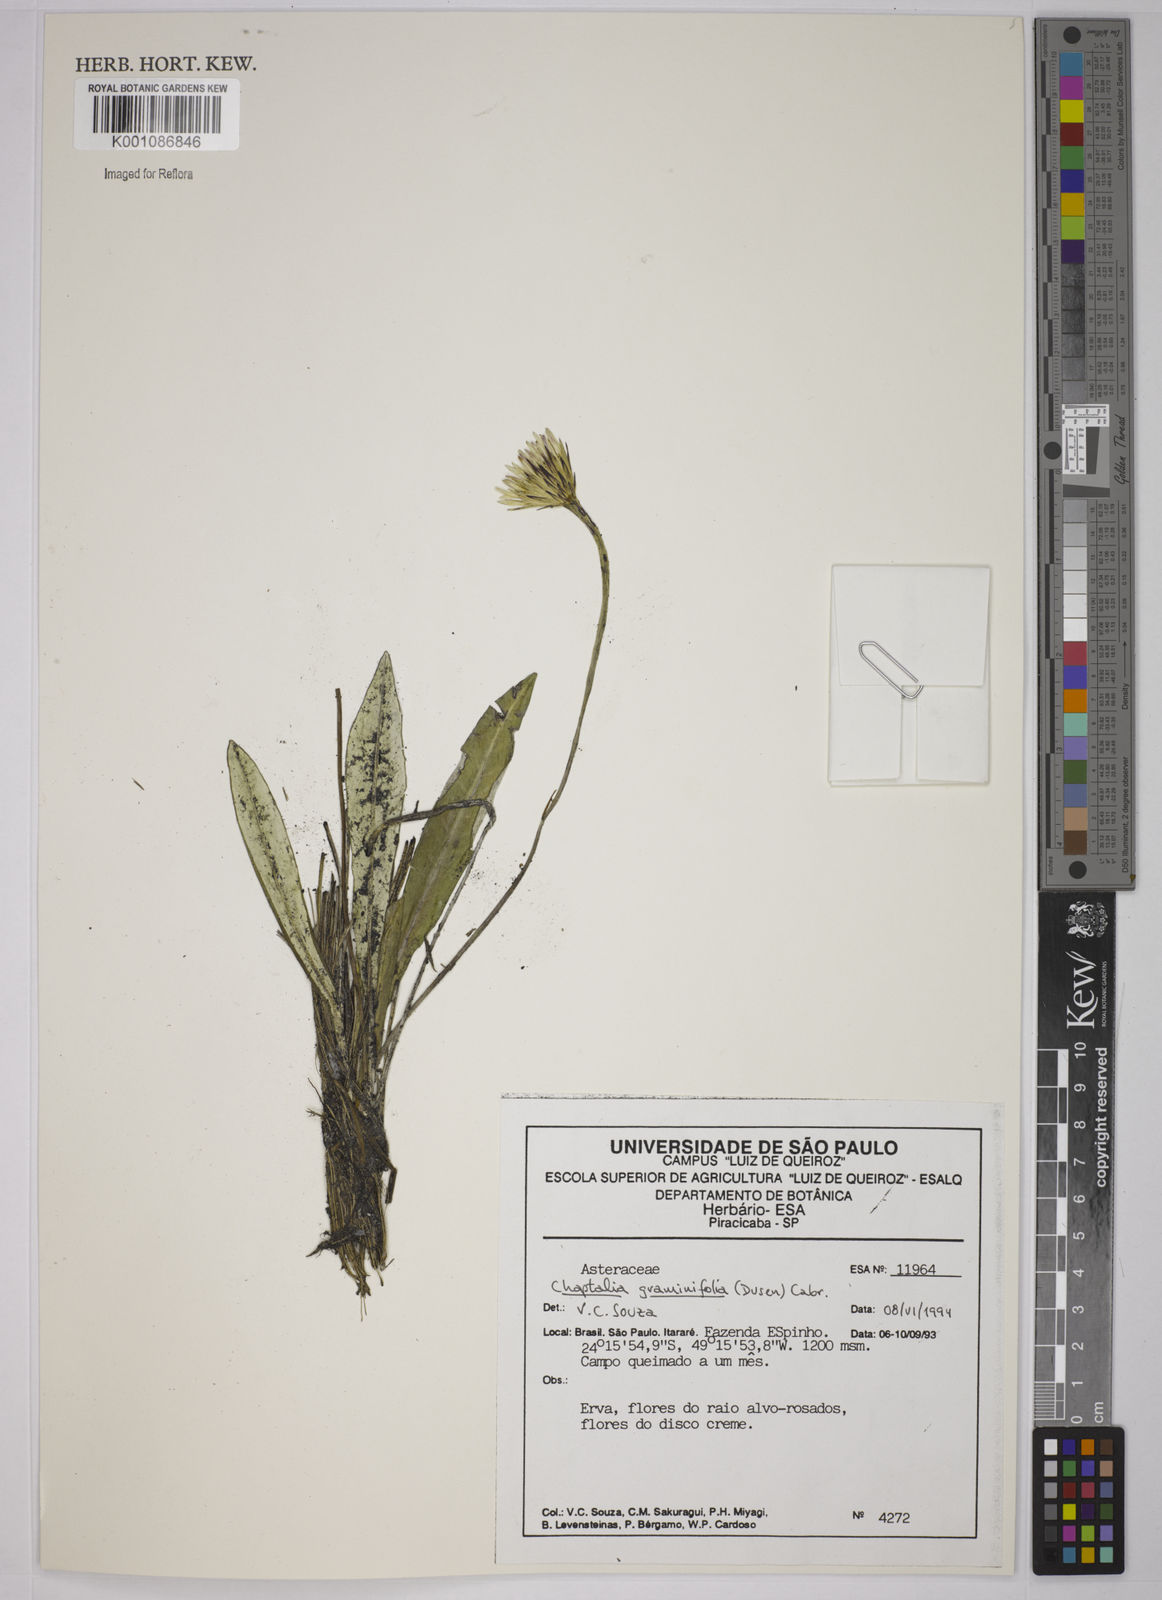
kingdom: Plantae
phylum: Tracheophyta
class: Magnoliopsida
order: Asterales
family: Asteraceae
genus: Chaptalia
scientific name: Chaptalia
